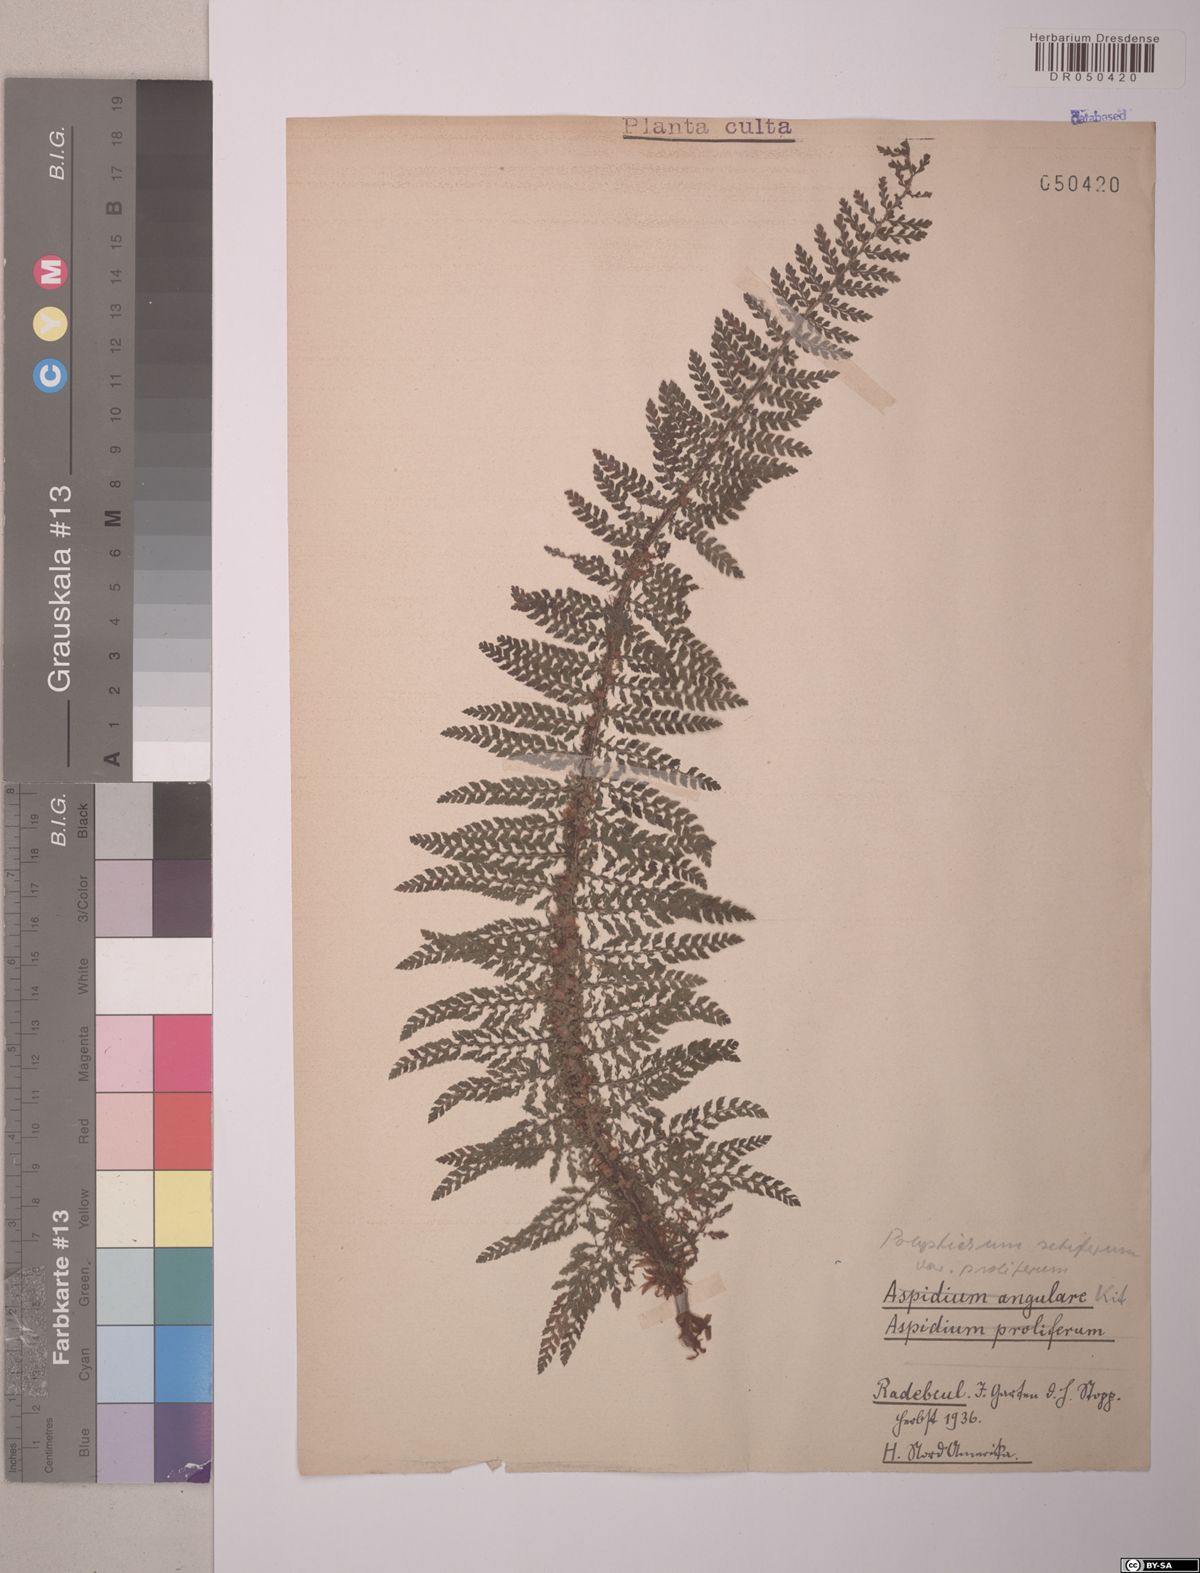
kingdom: Plantae
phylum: Tracheophyta
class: Polypodiopsida
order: Polypodiales
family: Dryopteridaceae
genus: Polystichum
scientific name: Polystichum setiferum
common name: Soft shield-fern
